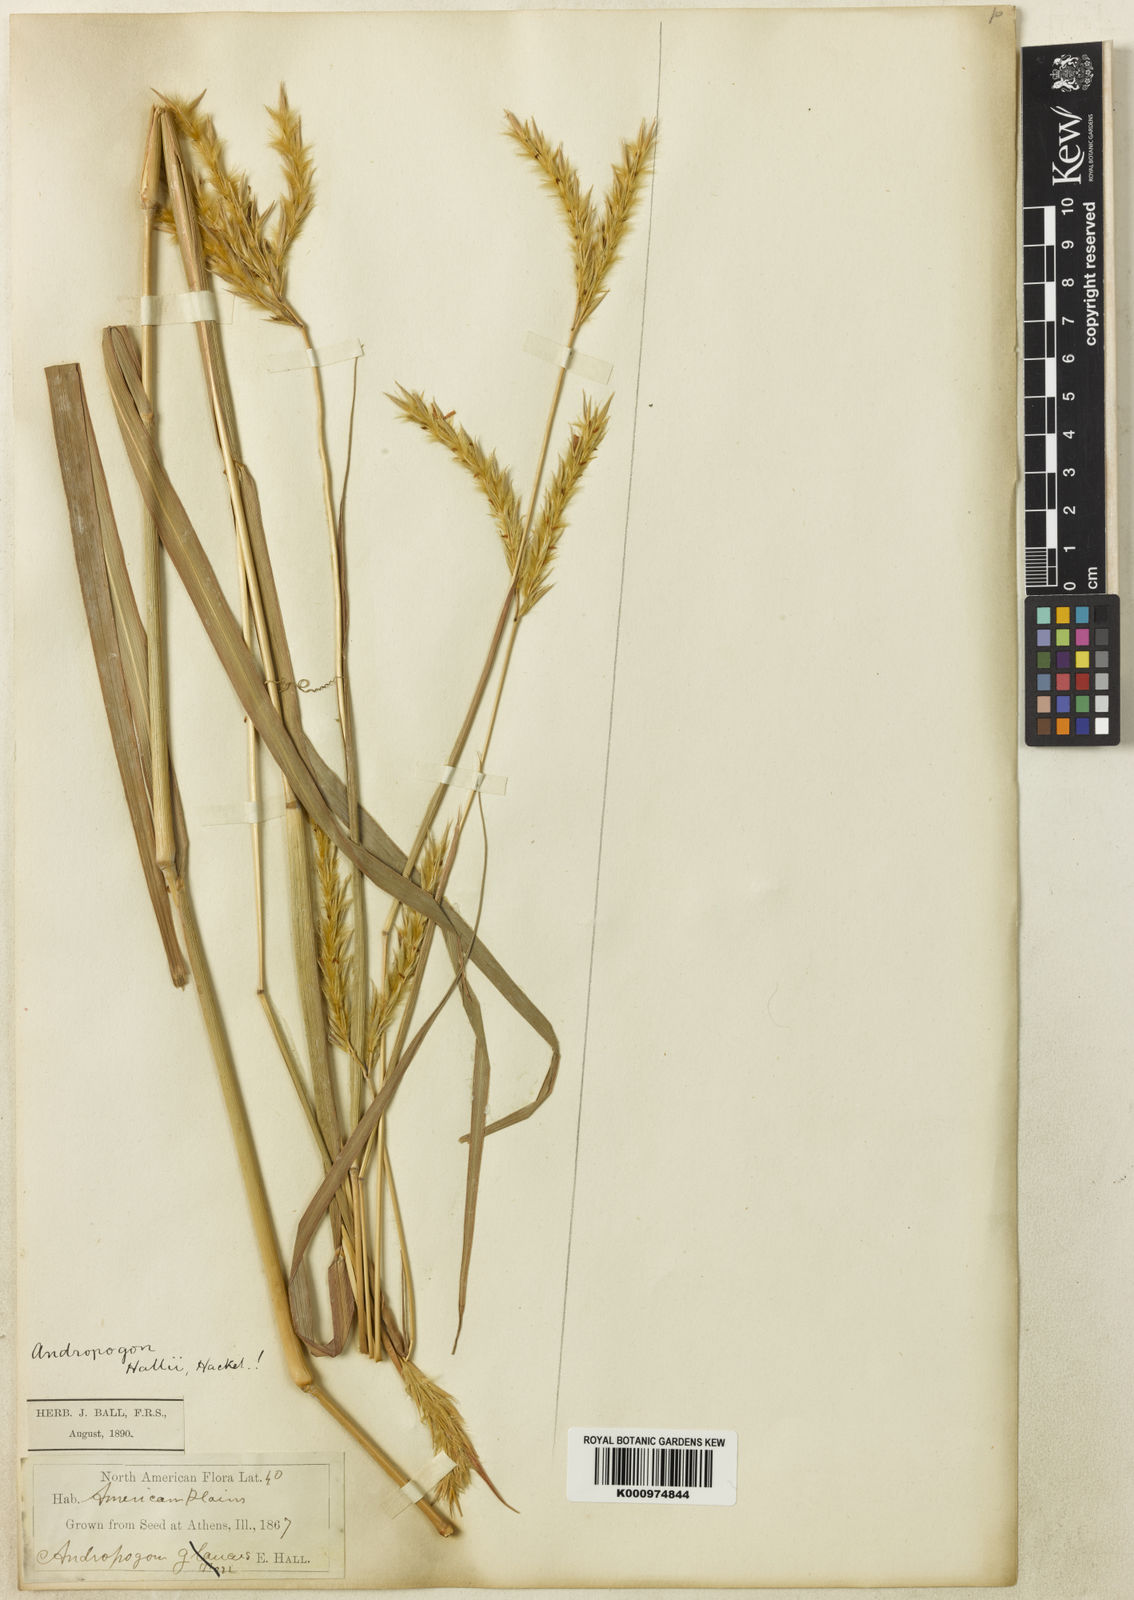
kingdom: Plantae
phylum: Tracheophyta
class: Liliopsida
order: Poales
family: Poaceae
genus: Andropogon
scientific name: Andropogon hallii
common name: Sand bluestem
